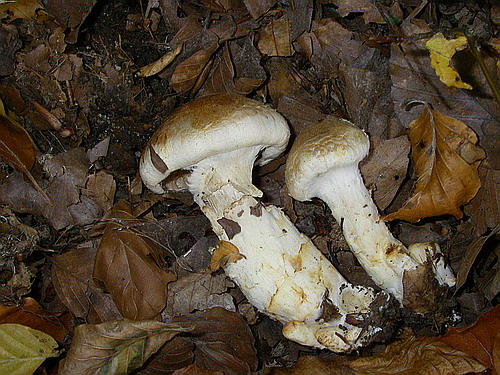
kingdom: Fungi
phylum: Basidiomycota
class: Agaricomycetes
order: Agaricales
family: Cortinariaceae
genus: Phlegmacium
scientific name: Phlegmacium vulpinum
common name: ringbæltet slørhat
